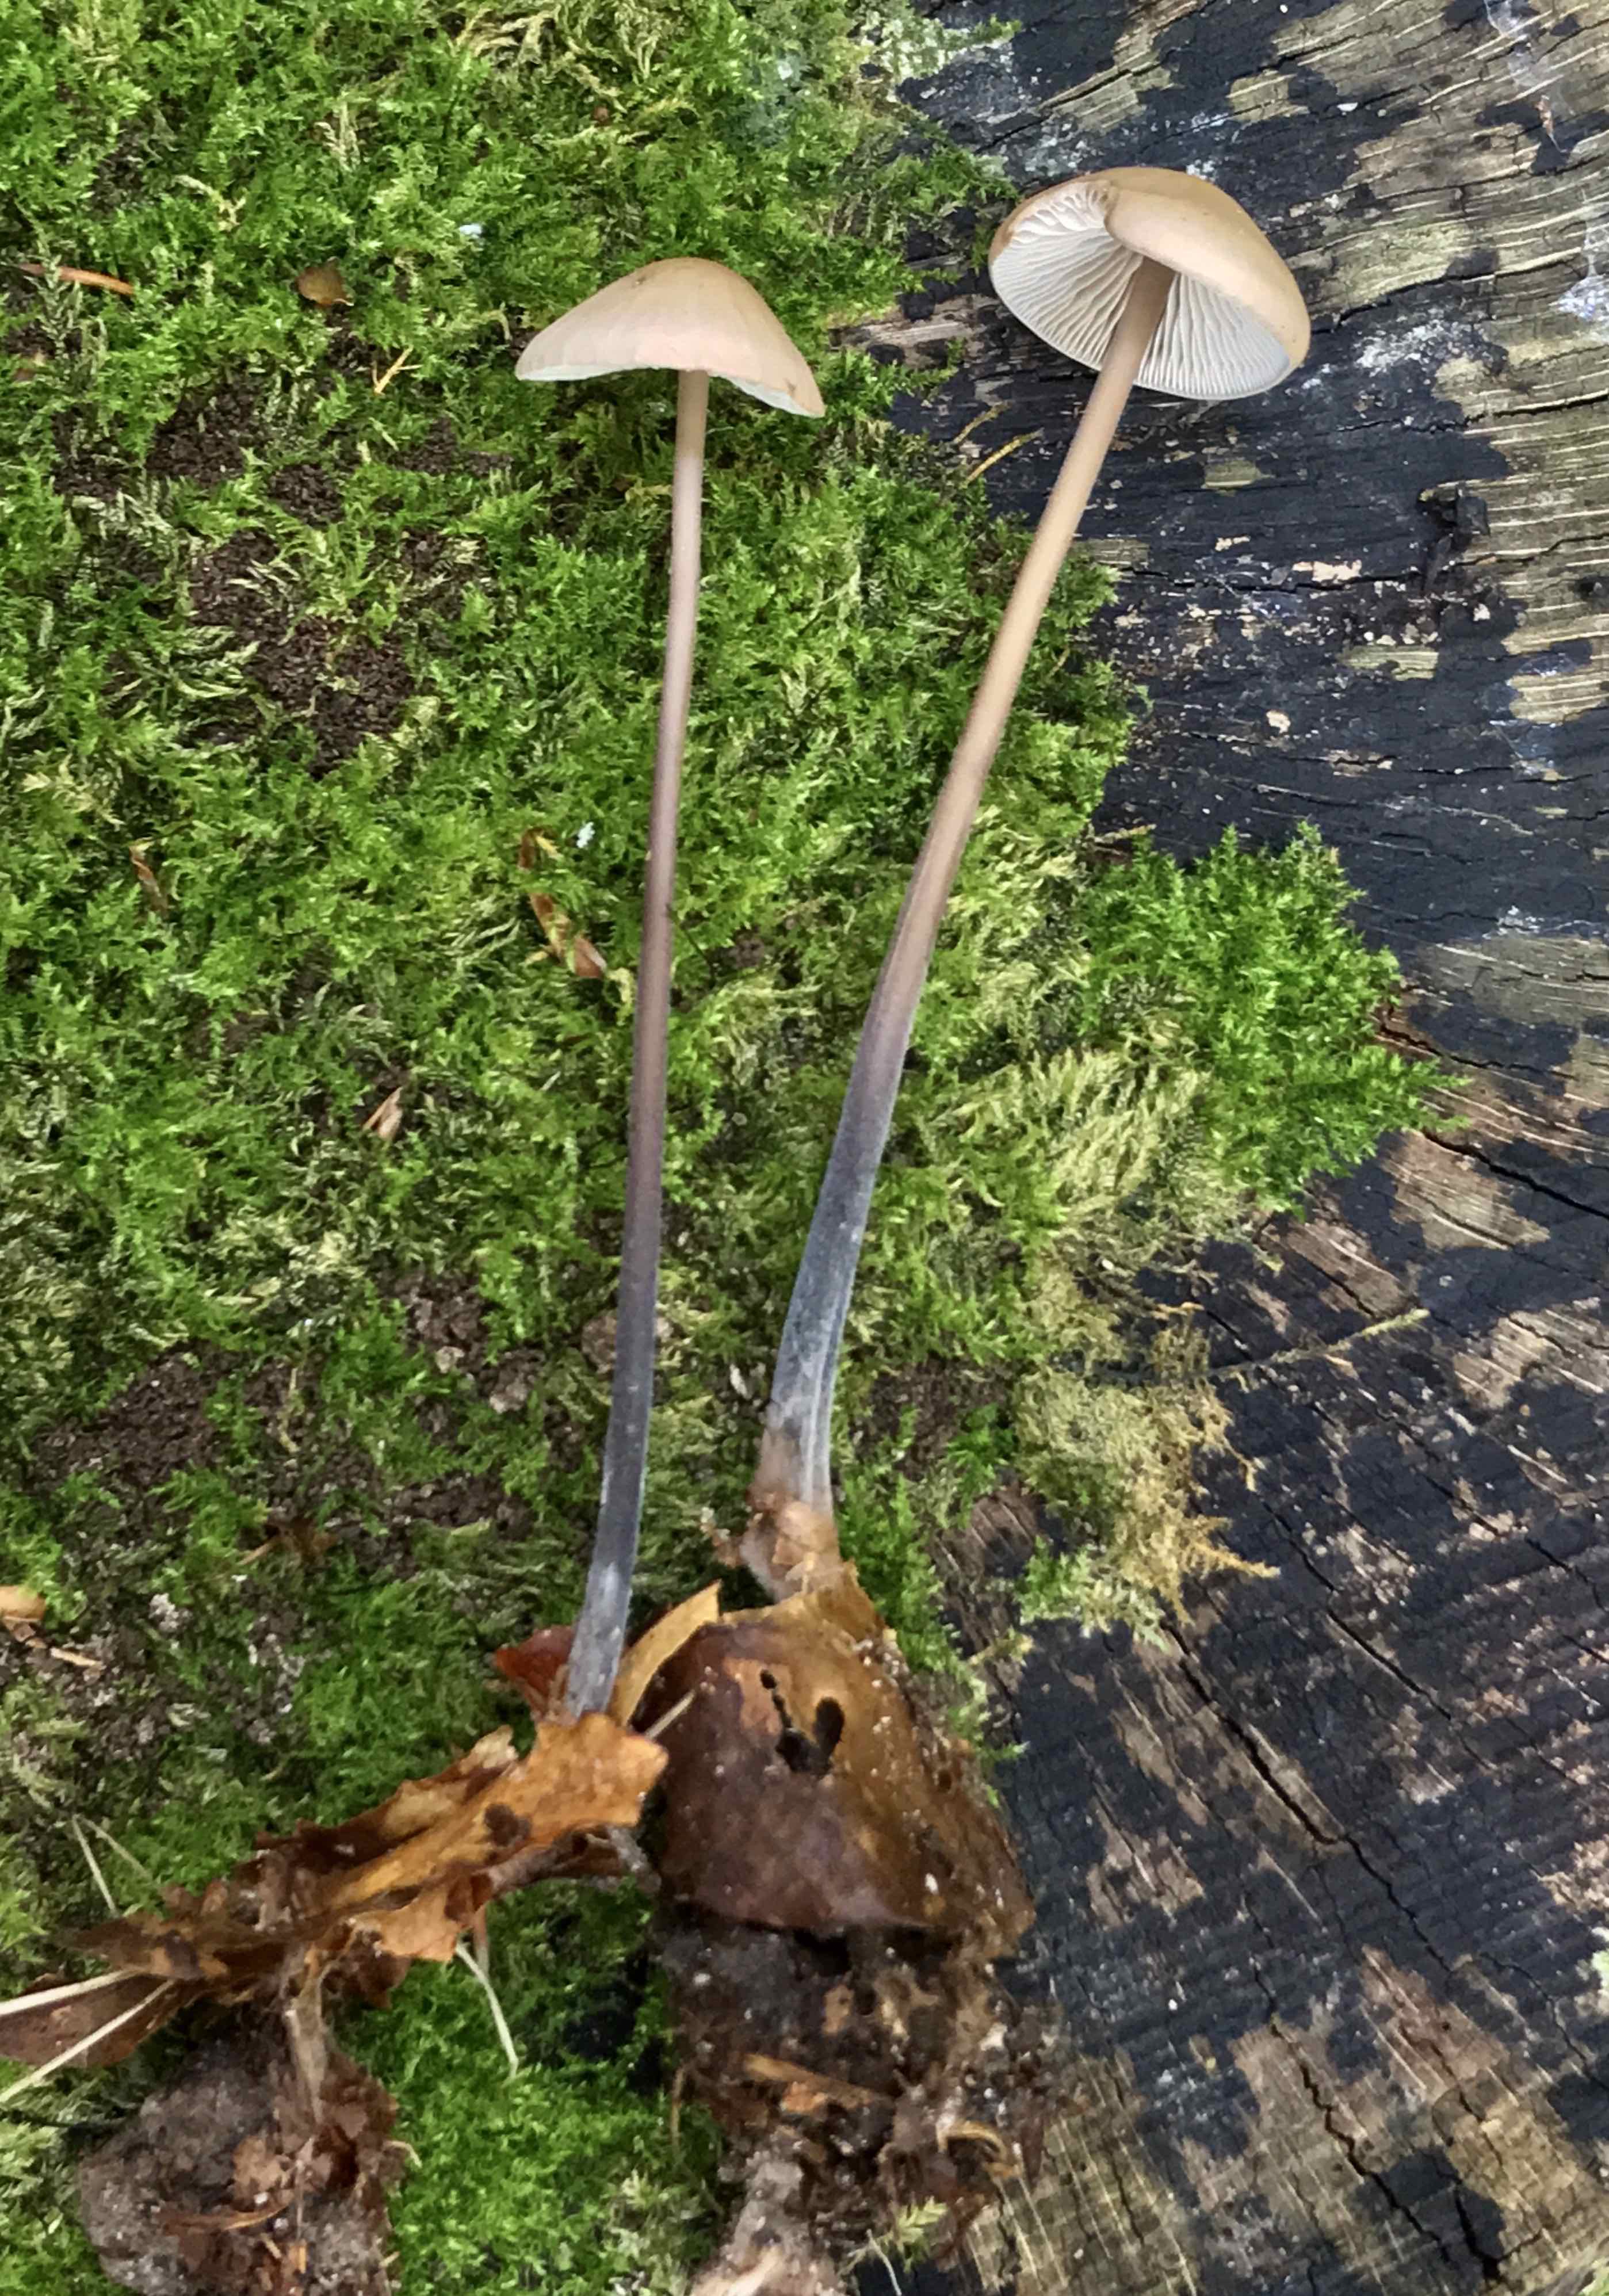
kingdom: Fungi
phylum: Basidiomycota
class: Agaricomycetes
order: Agaricales
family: Omphalotaceae
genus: Mycetinis
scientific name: Mycetinis alliaceus
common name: stor løghat
